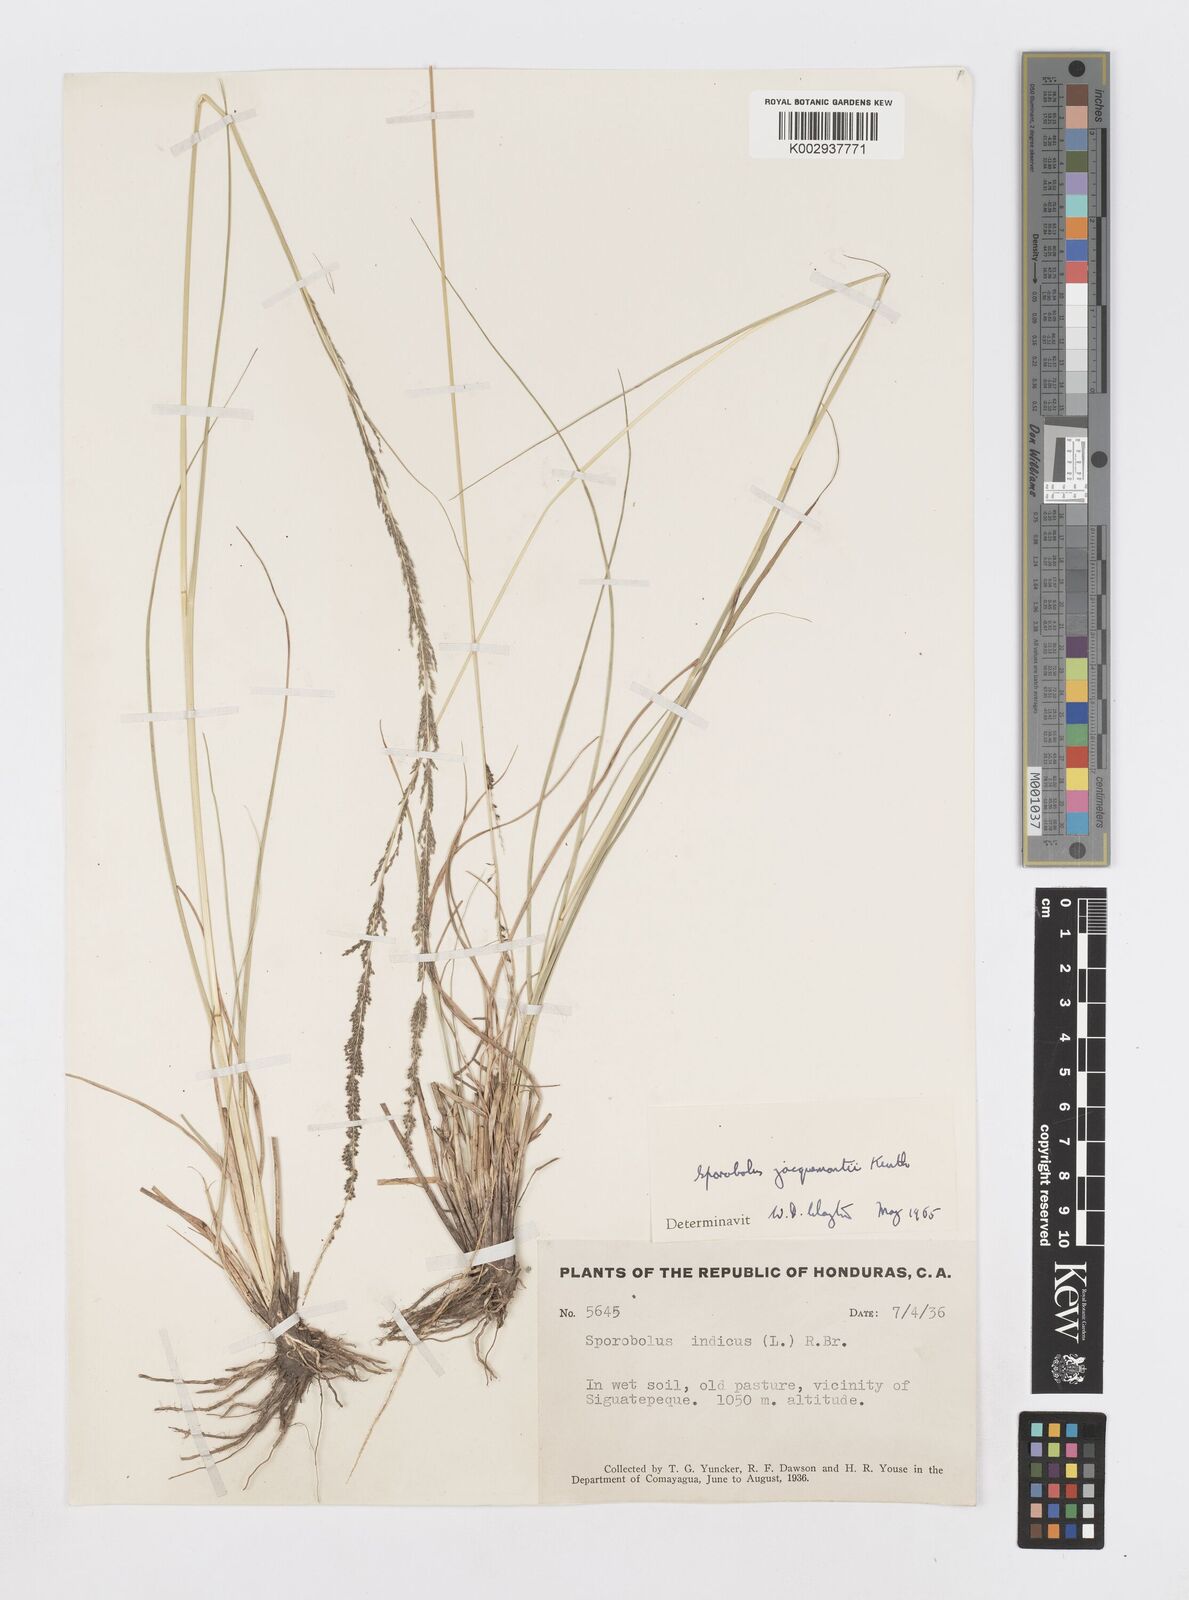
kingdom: Plantae
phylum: Tracheophyta
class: Liliopsida
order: Poales
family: Poaceae
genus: Sporobolus
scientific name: Sporobolus pyramidalis
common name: West indian dropseed
